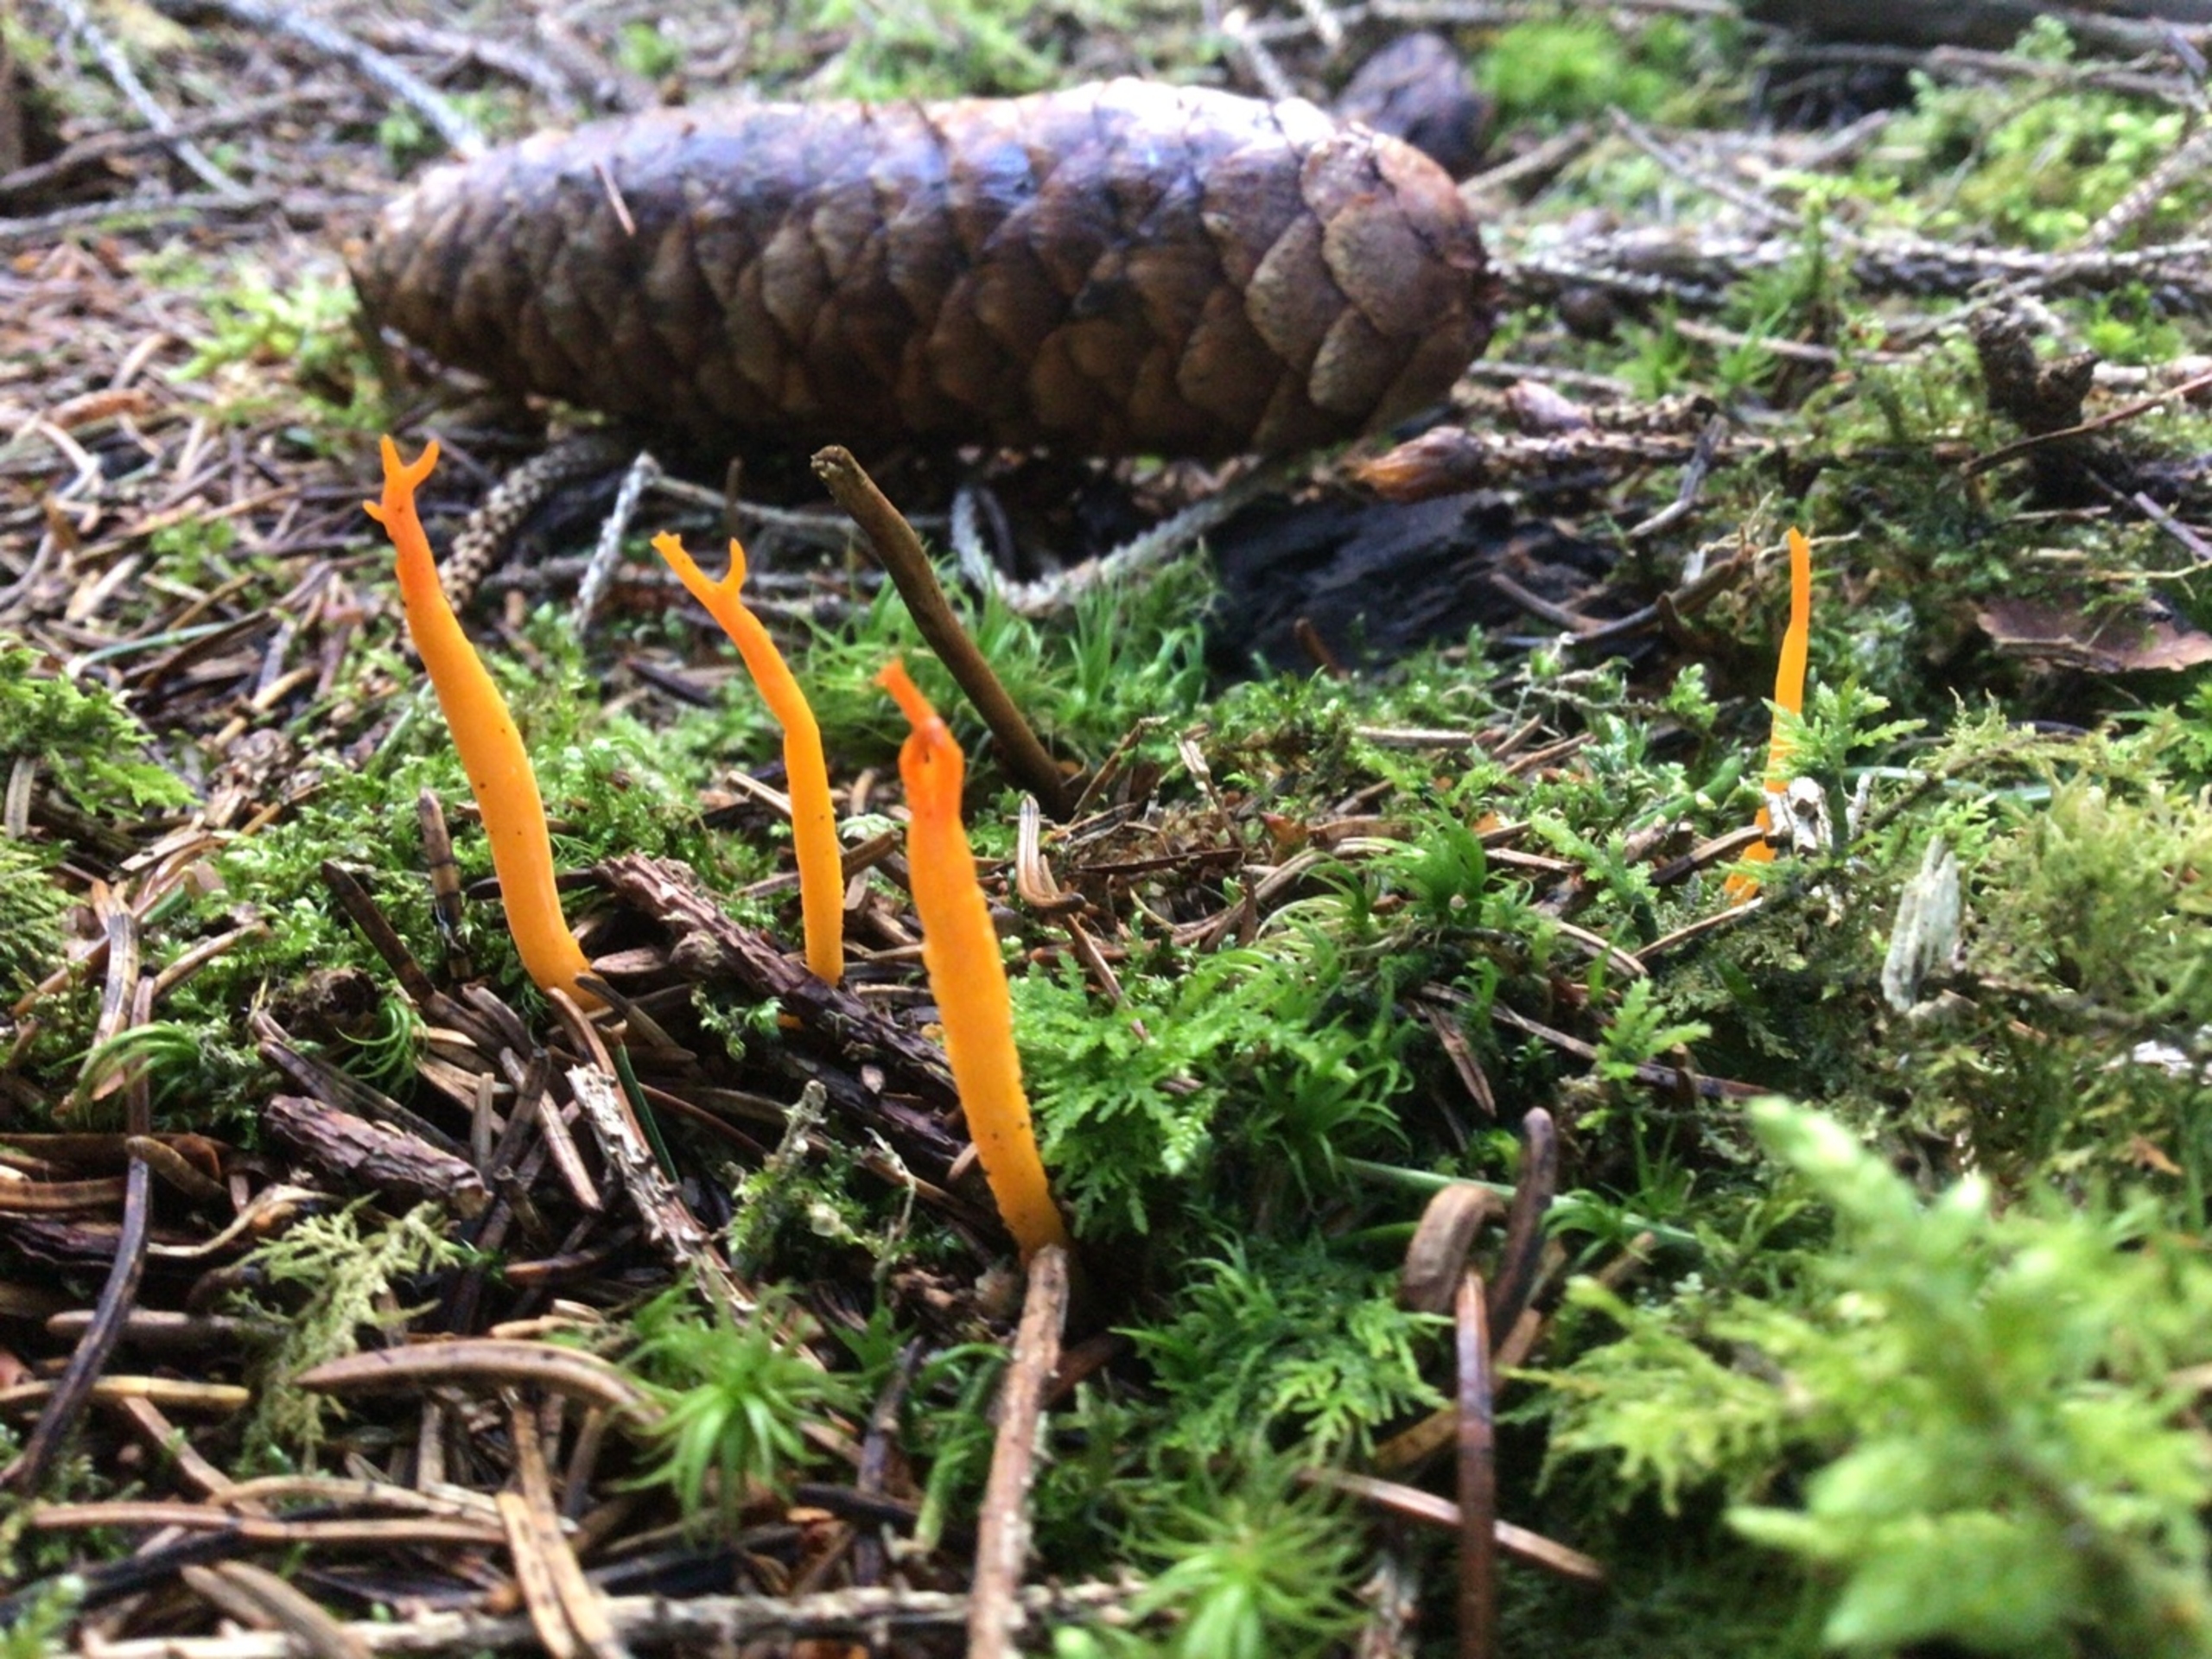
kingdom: Fungi
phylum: Basidiomycota
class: Dacrymycetes
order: Dacrymycetales
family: Dacrymycetaceae
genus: Calocera
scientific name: Calocera viscosa
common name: Almindelig guldgaffel
